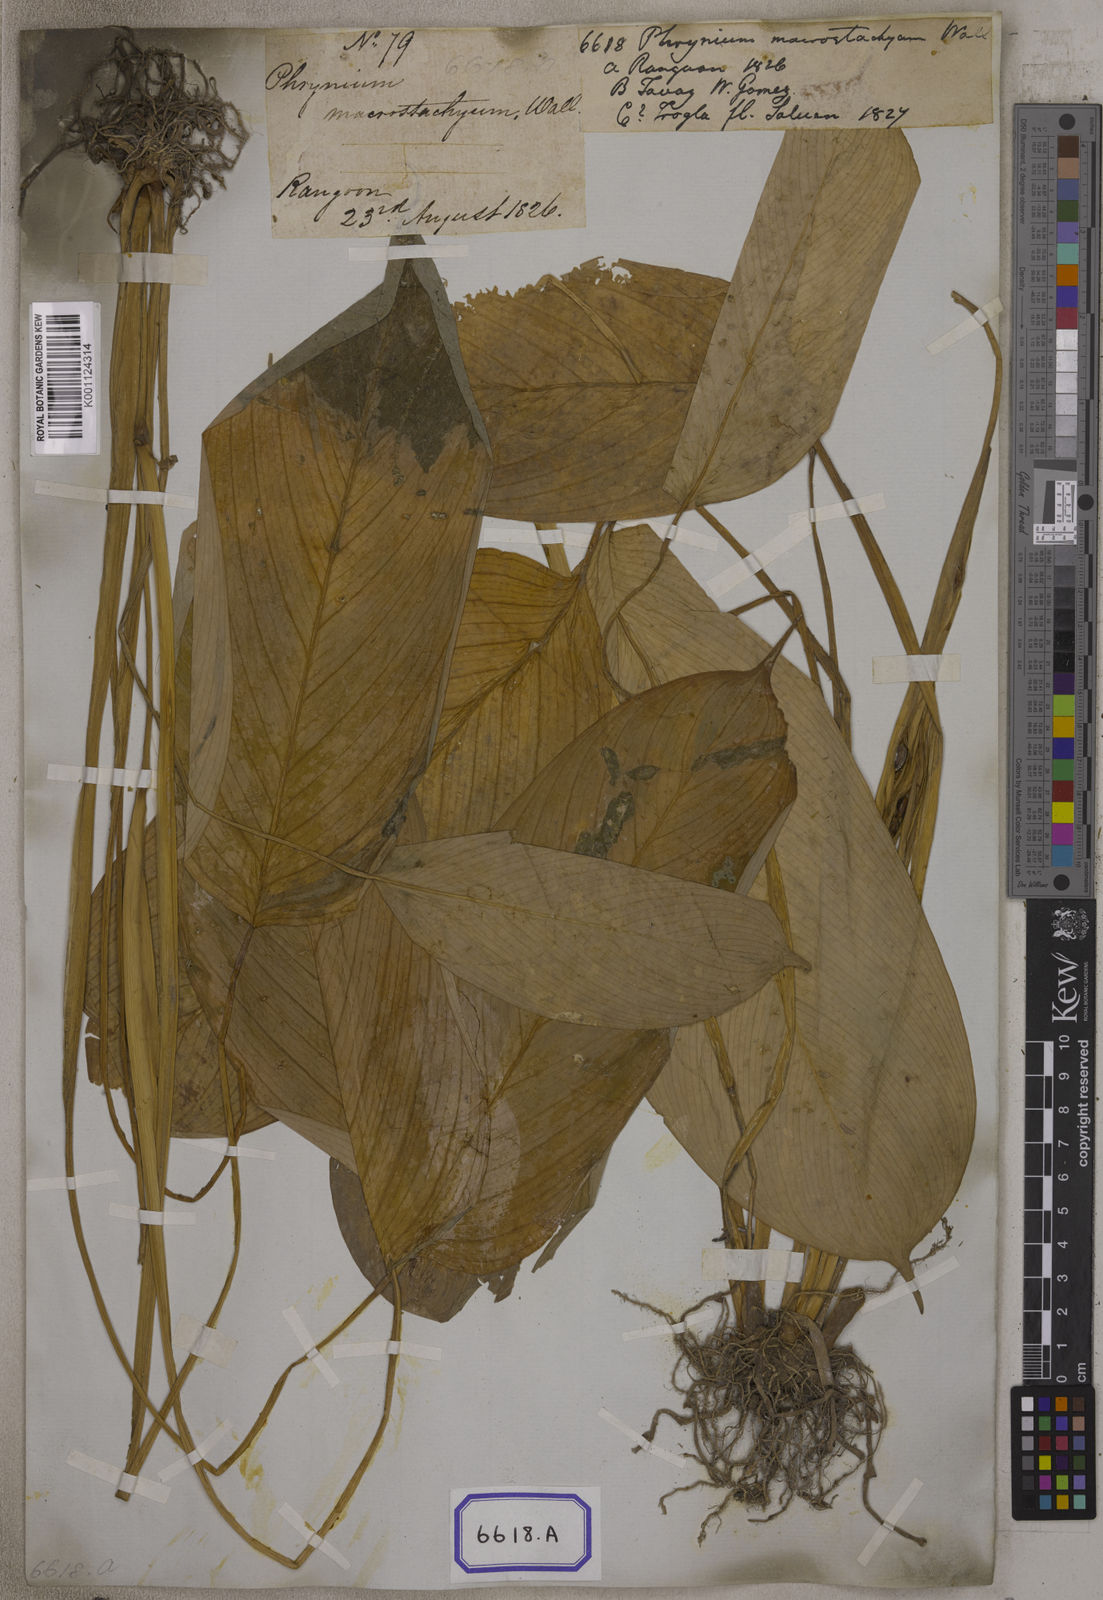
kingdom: Plantae
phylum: Tracheophyta
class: Liliopsida
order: Zingiberales
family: Marantaceae
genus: Phrynium
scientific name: Phrynium
